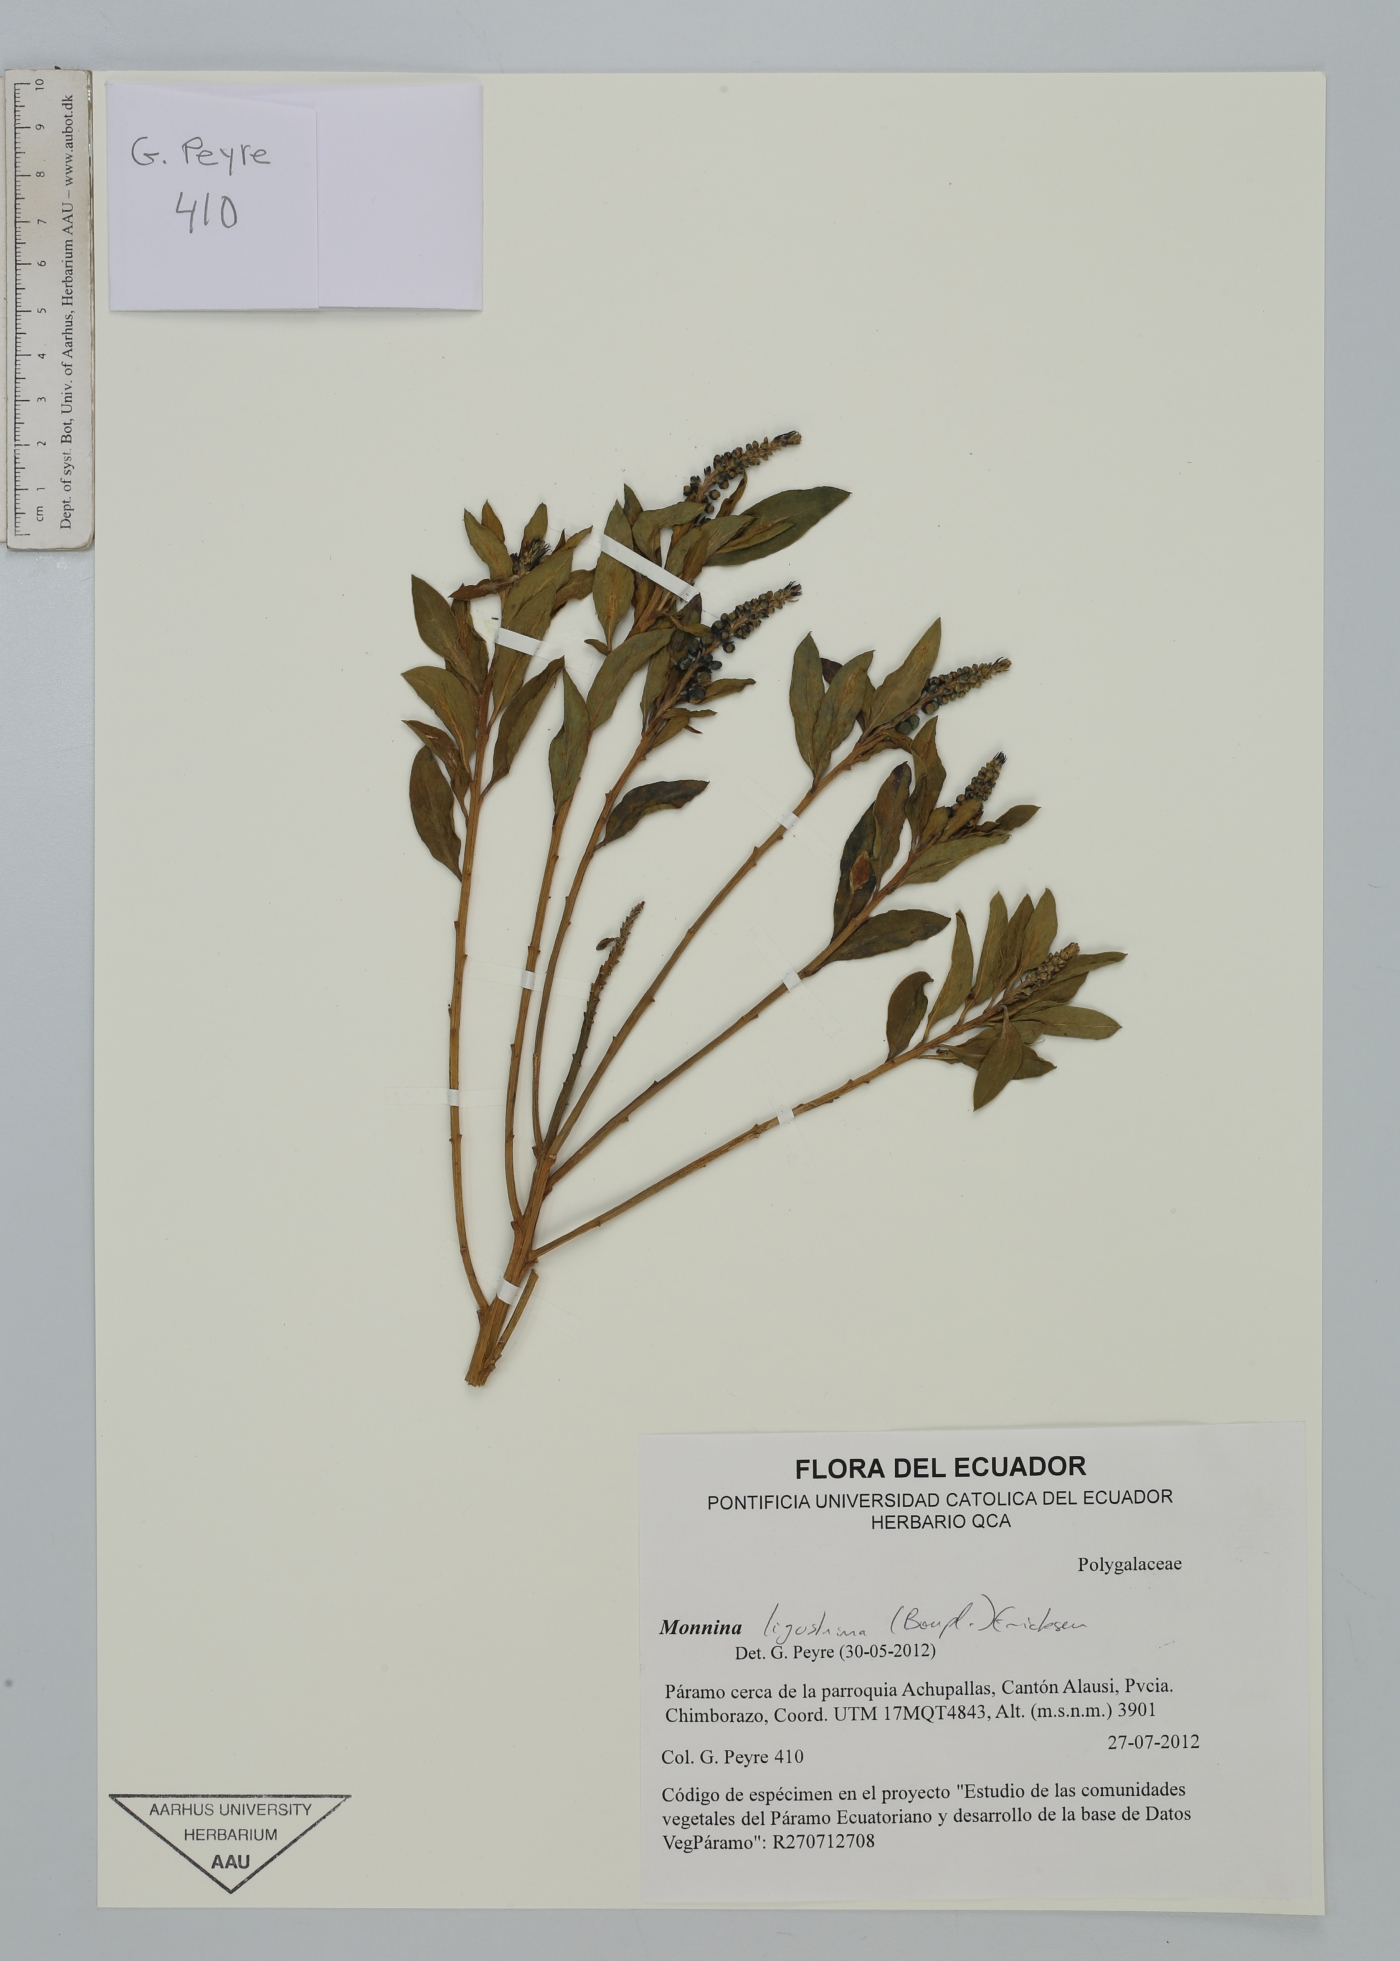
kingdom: Plantae
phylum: Tracheophyta
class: Magnoliopsida
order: Fabales
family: Polygalaceae
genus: Monnina
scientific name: Monnina ligustrina
